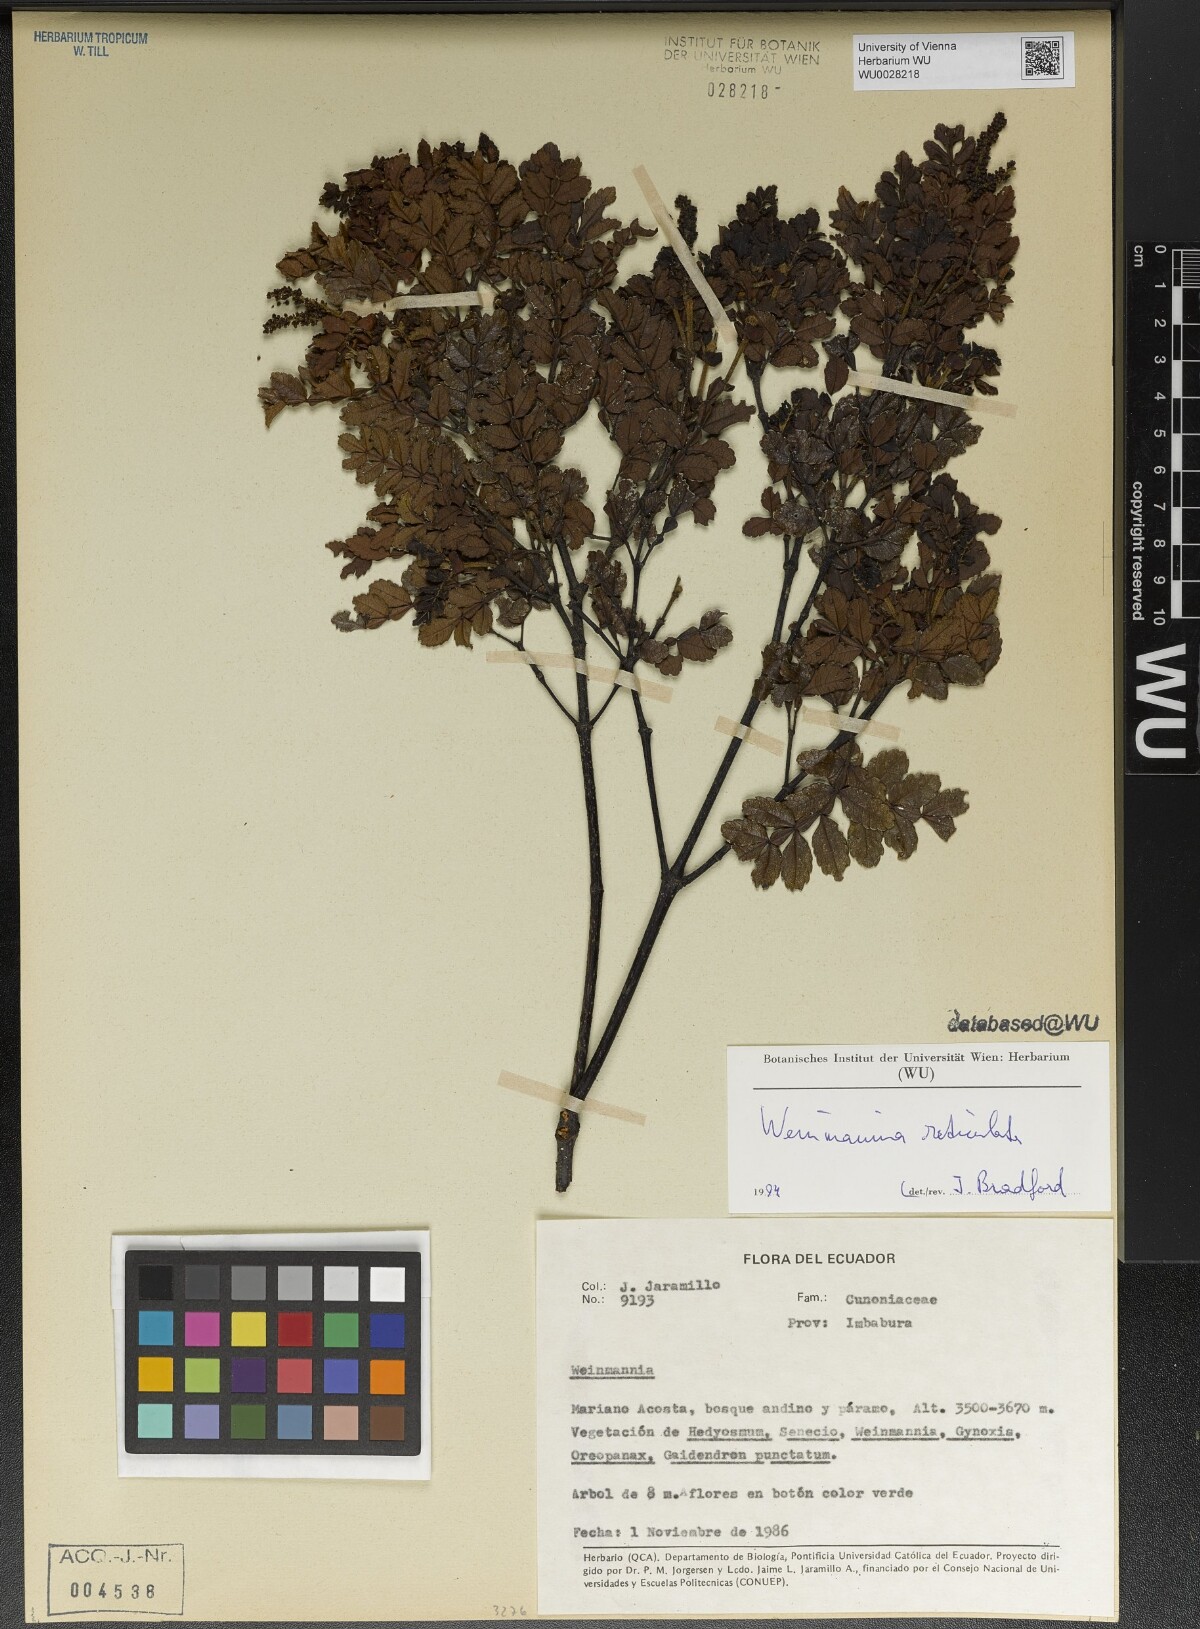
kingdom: Plantae
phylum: Tracheophyta
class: Magnoliopsida
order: Oxalidales
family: Cunoniaceae
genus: Weinmannia
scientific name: Weinmannia reticulata
